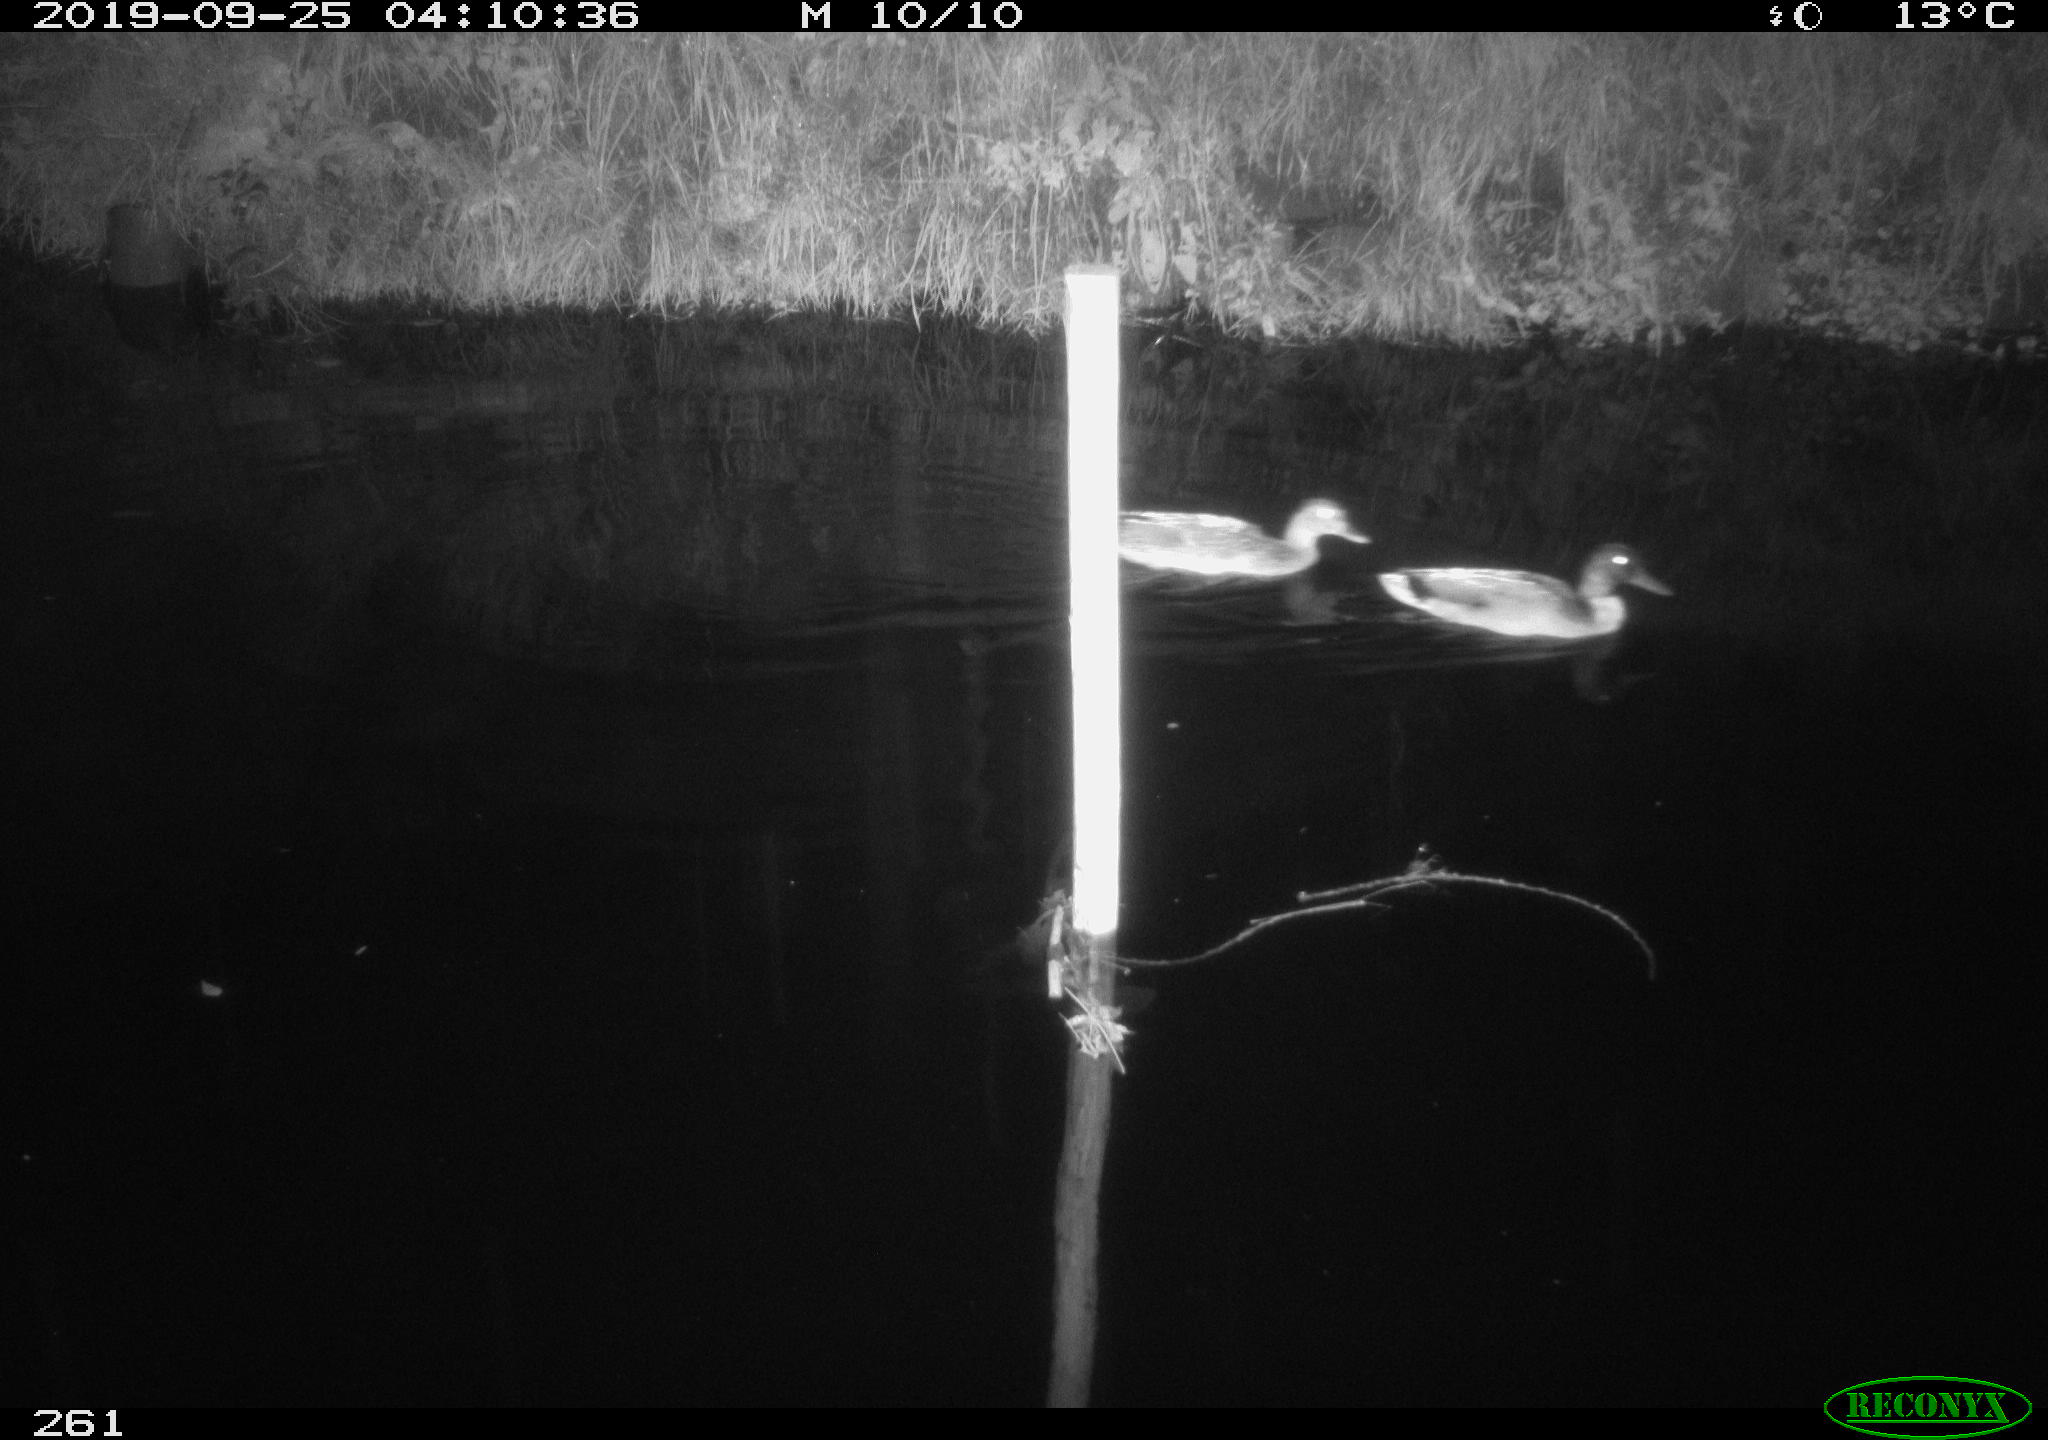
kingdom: Animalia
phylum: Chordata
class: Aves
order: Anseriformes
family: Anatidae
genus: Anas
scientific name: Anas platyrhynchos
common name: Mallard
